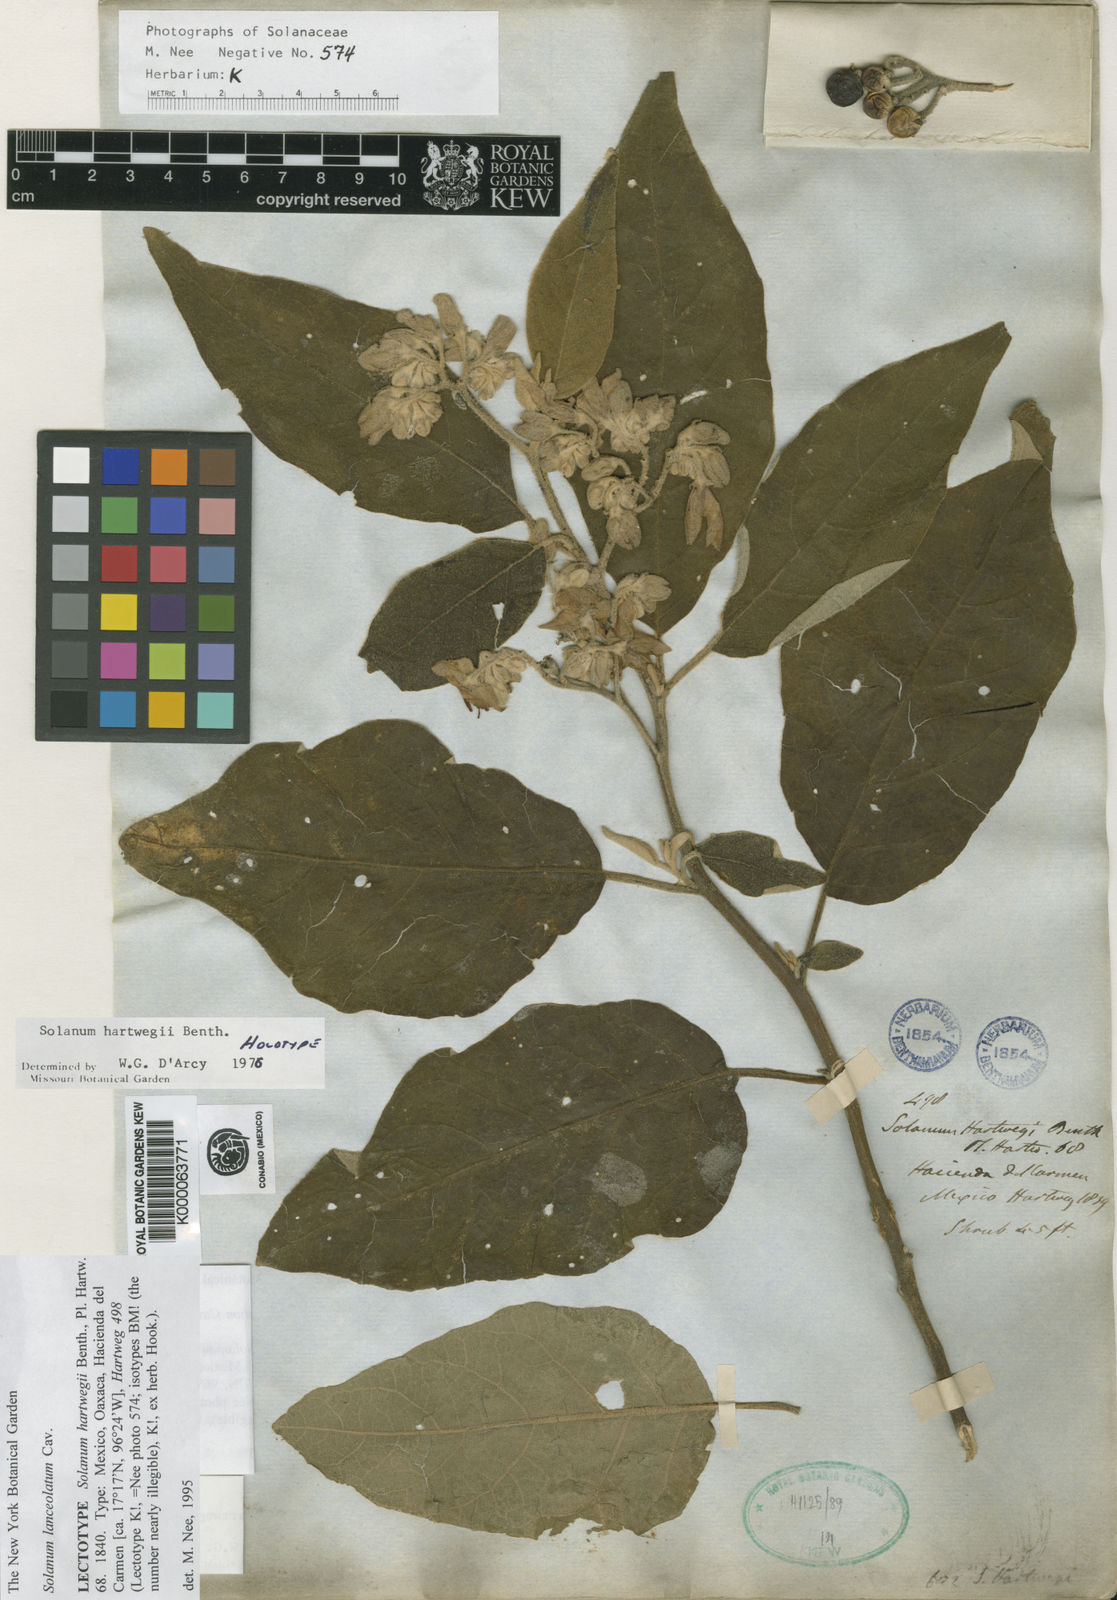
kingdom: Plantae
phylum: Tracheophyta
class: Magnoliopsida
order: Solanales
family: Solanaceae
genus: Solanum
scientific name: Solanum lanceolatum
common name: Orangeberry nightshade
